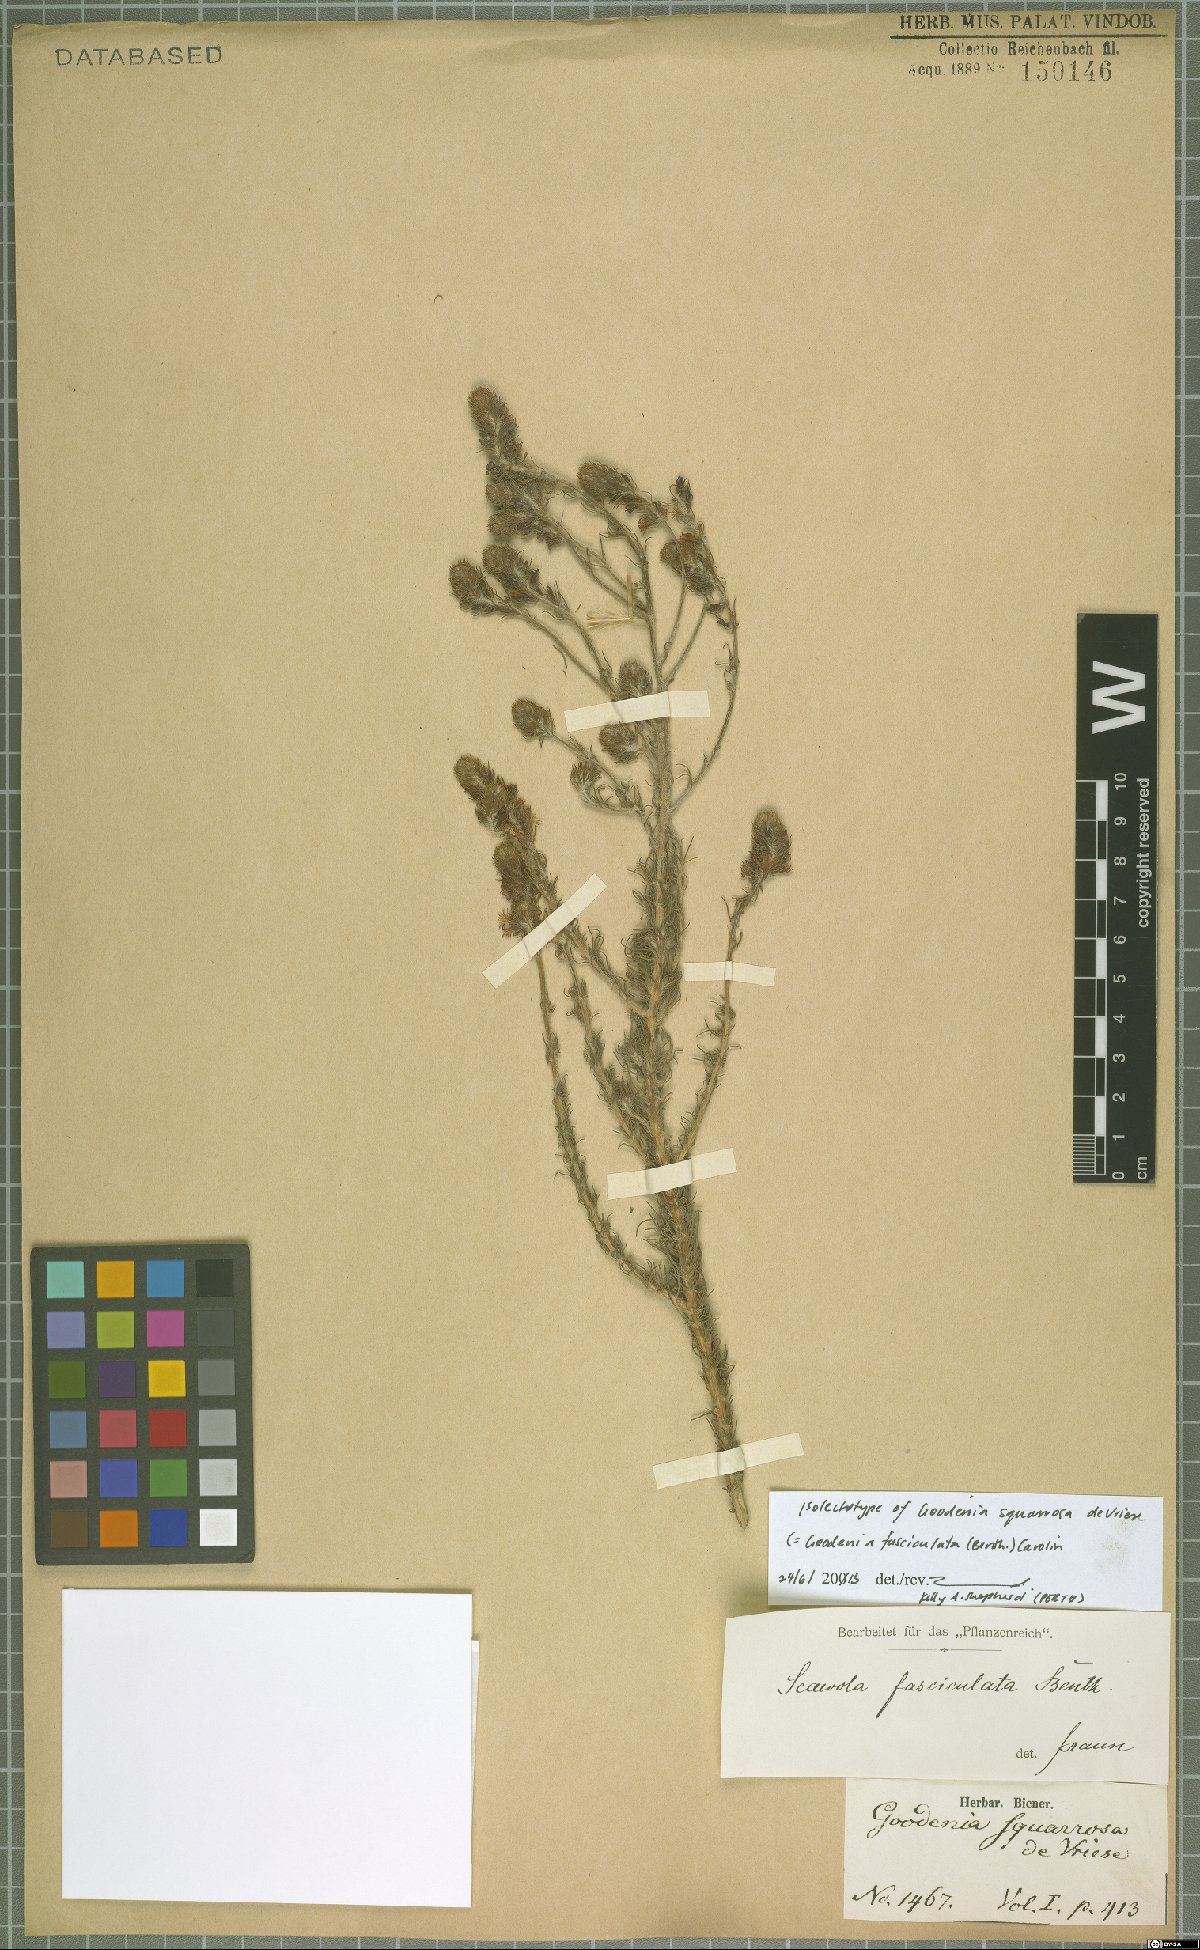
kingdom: Plantae
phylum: Tracheophyta
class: Magnoliopsida
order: Asterales
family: Goodeniaceae
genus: Goodenia
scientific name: Goodenia fasciculata
